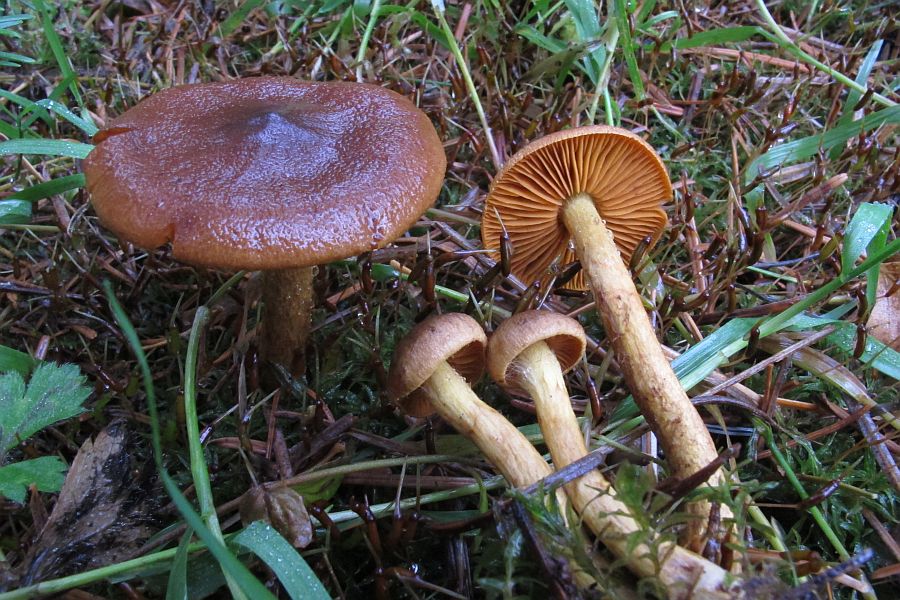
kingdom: Fungi
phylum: Basidiomycota
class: Agaricomycetes
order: Agaricales
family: Cortinariaceae
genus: Cortinarius
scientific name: Cortinarius
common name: gulbladet slørhat
